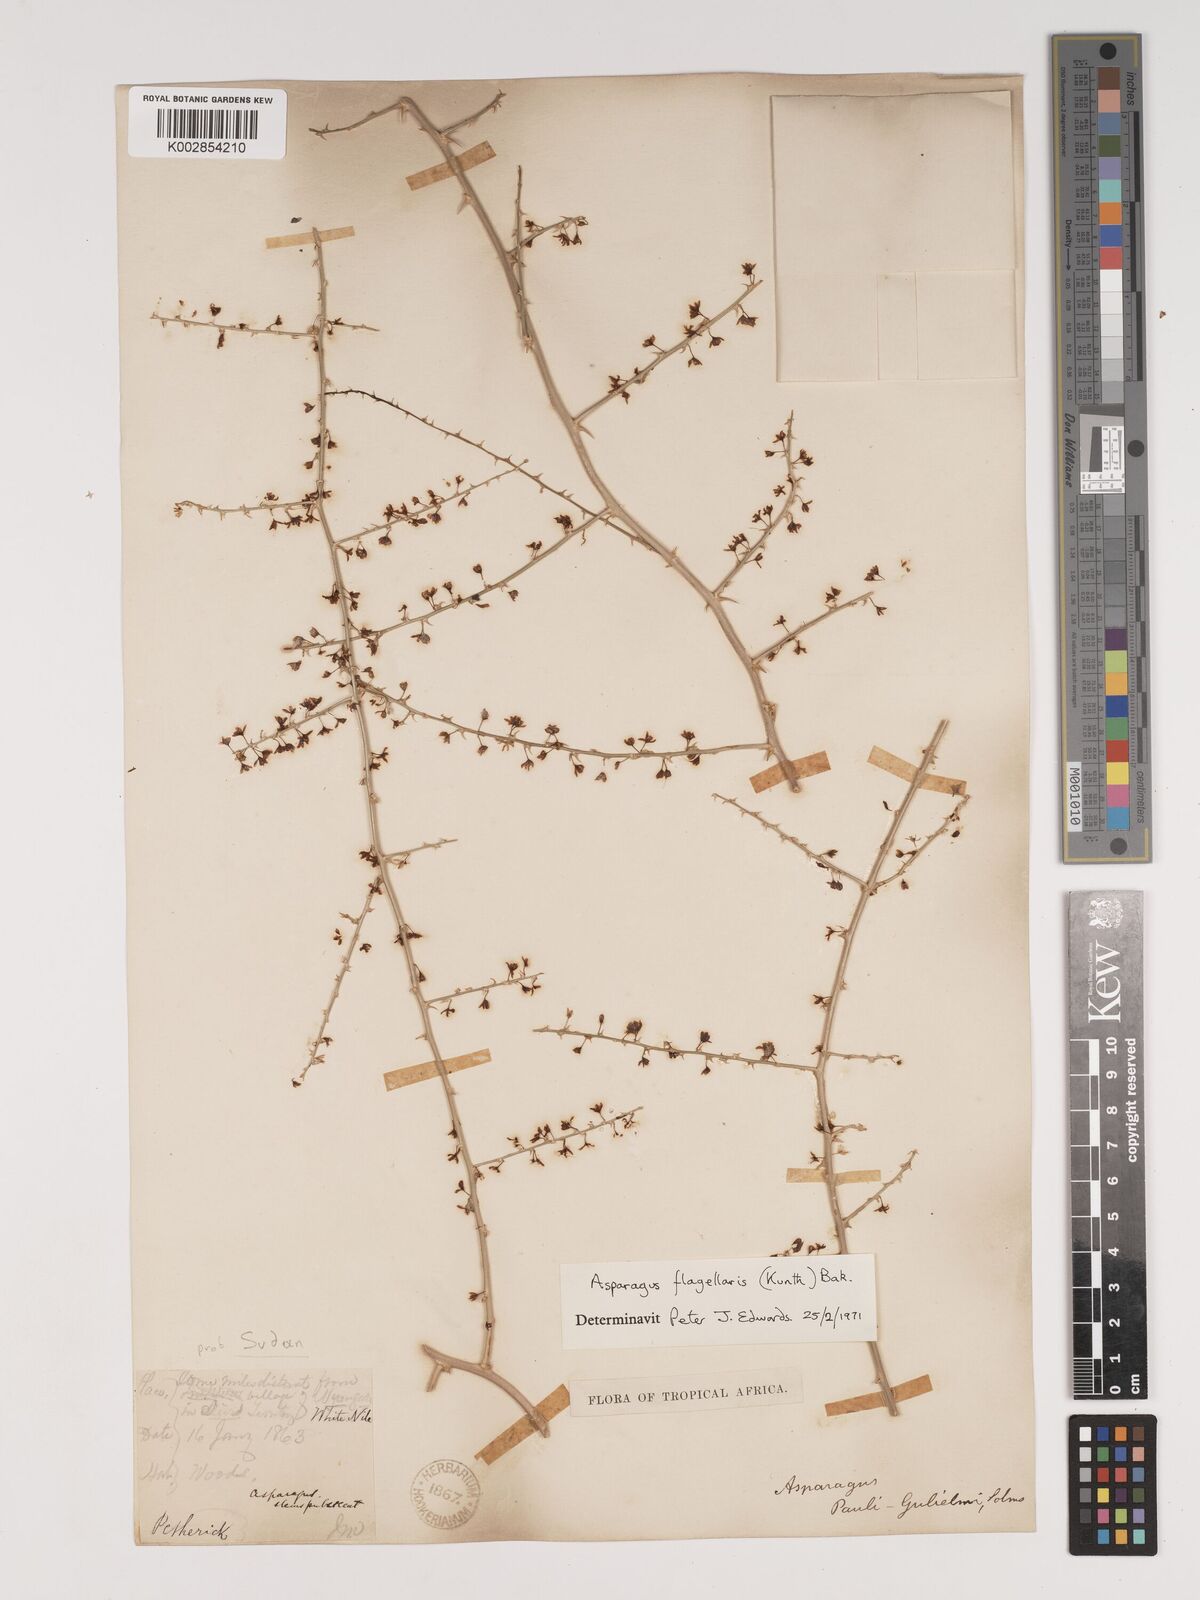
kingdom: Plantae
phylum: Tracheophyta
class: Liliopsida
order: Asparagales
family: Asparagaceae
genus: Asparagus
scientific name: Asparagus flagellaris
